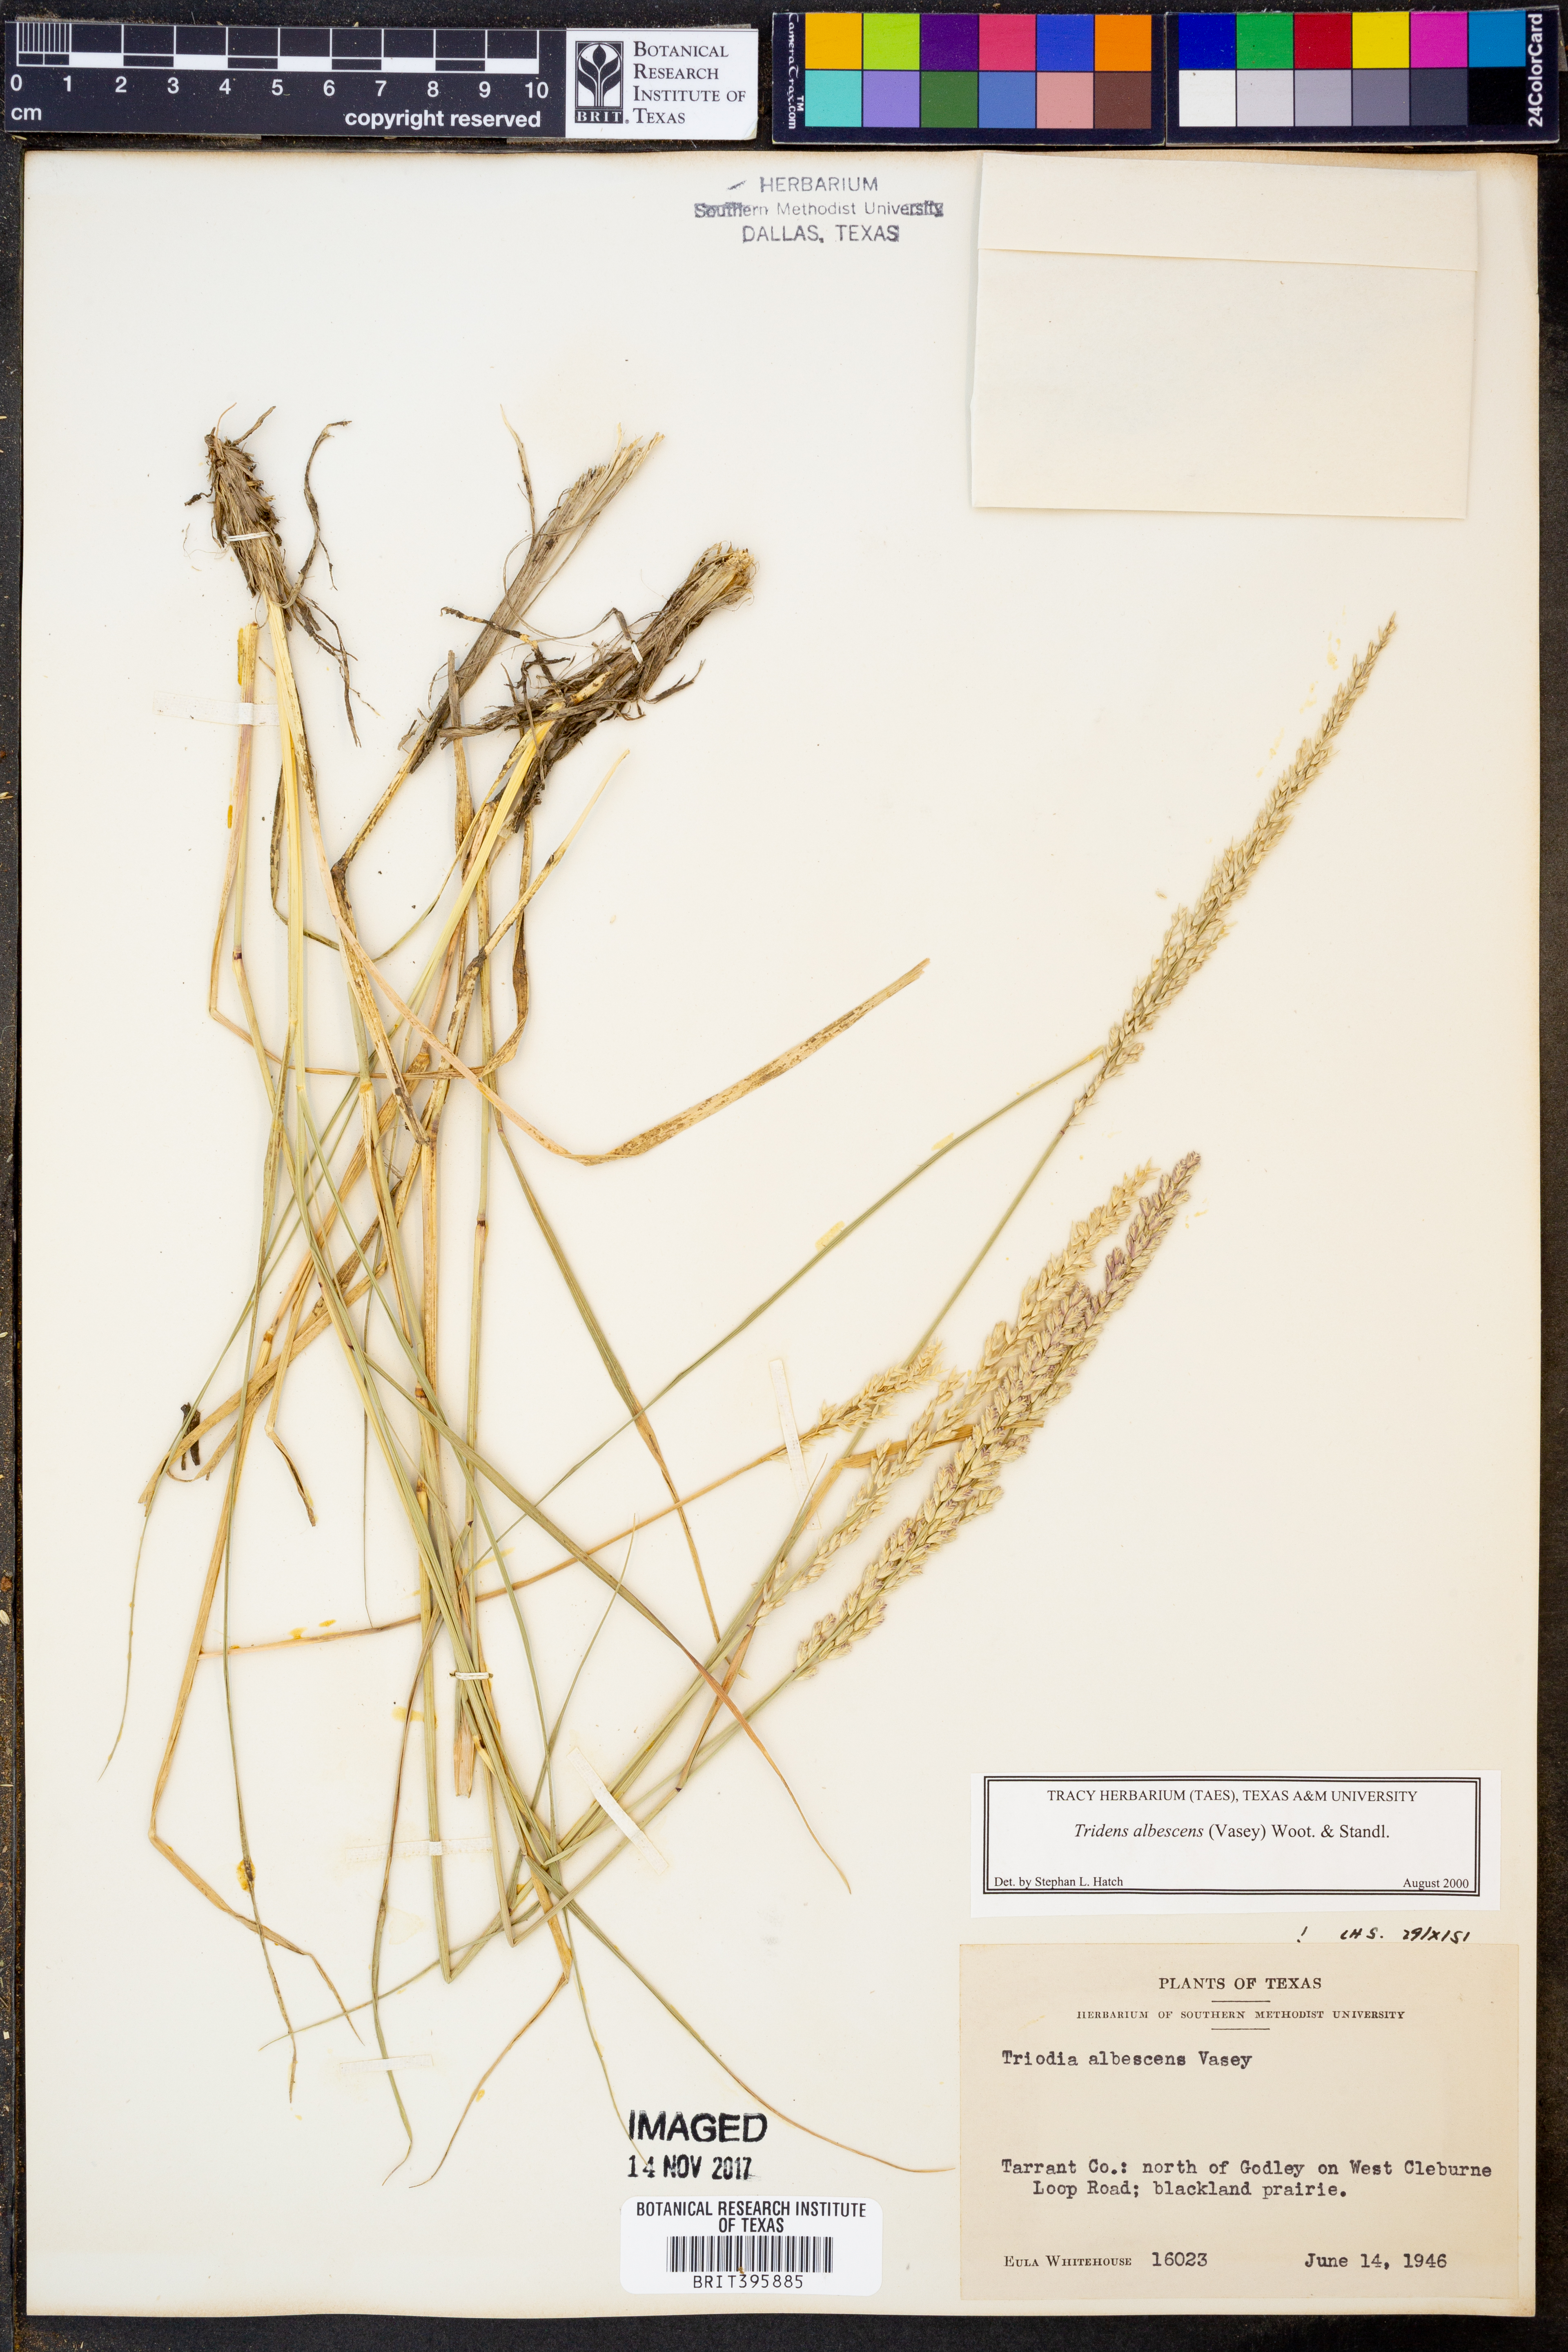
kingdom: Plantae
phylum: Tracheophyta
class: Liliopsida
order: Poales
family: Poaceae
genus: Tridens
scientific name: Tridens albescens
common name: White tridens
